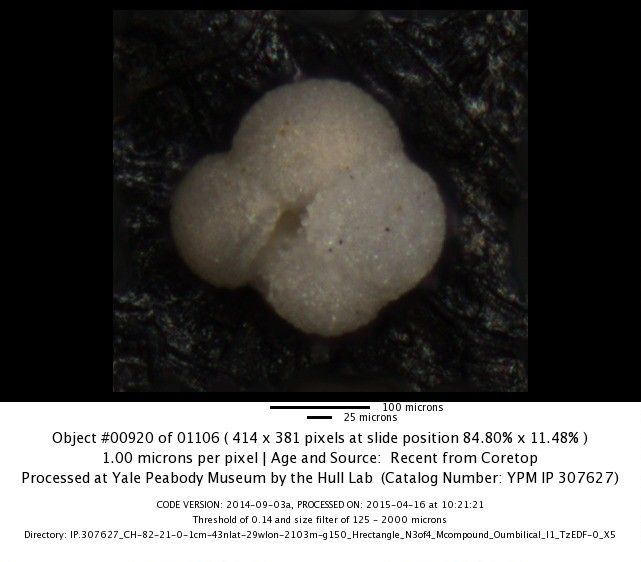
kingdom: Chromista
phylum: Foraminifera
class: Globothalamea
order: Rotaliida
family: Globorotaliidae
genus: Neogloboquadrina
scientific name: Neogloboquadrina incompta
